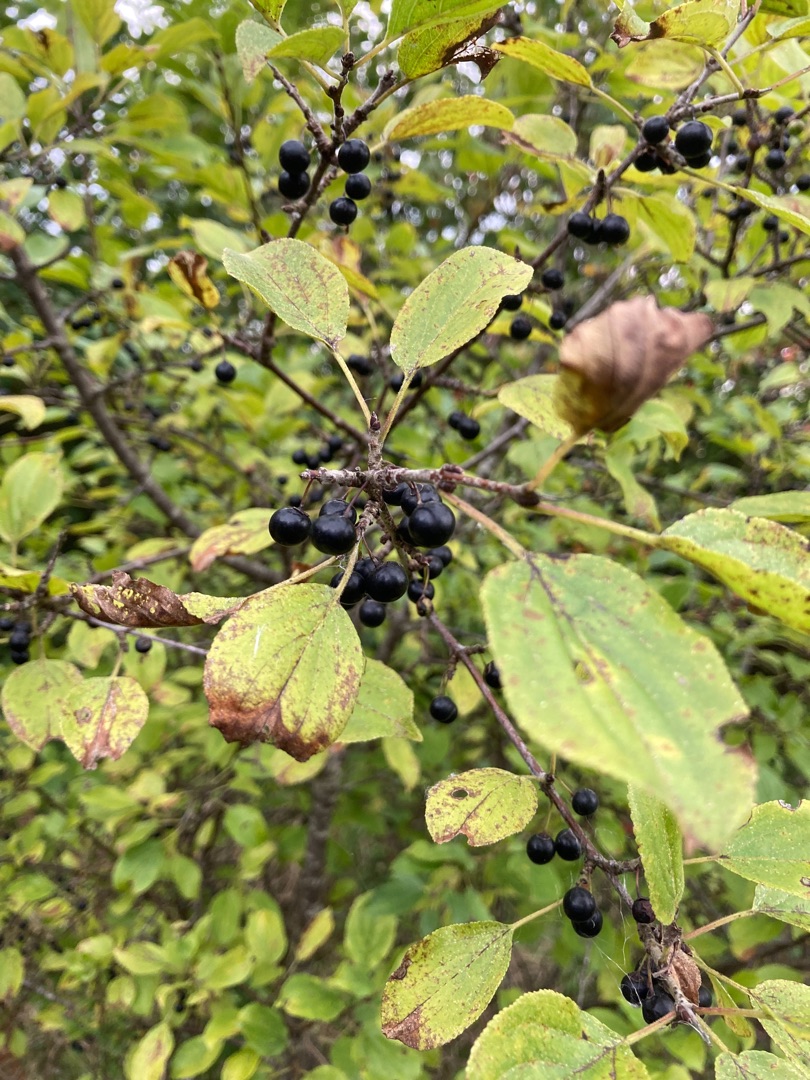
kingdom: Plantae
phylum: Tracheophyta
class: Magnoliopsida
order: Rosales
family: Rhamnaceae
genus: Rhamnus
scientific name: Rhamnus cathartica
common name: Vrietorn
